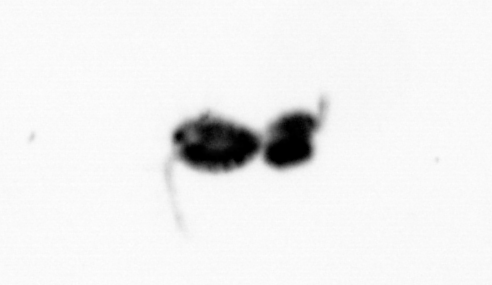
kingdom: Animalia
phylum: Arthropoda
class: Copepoda
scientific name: Copepoda
